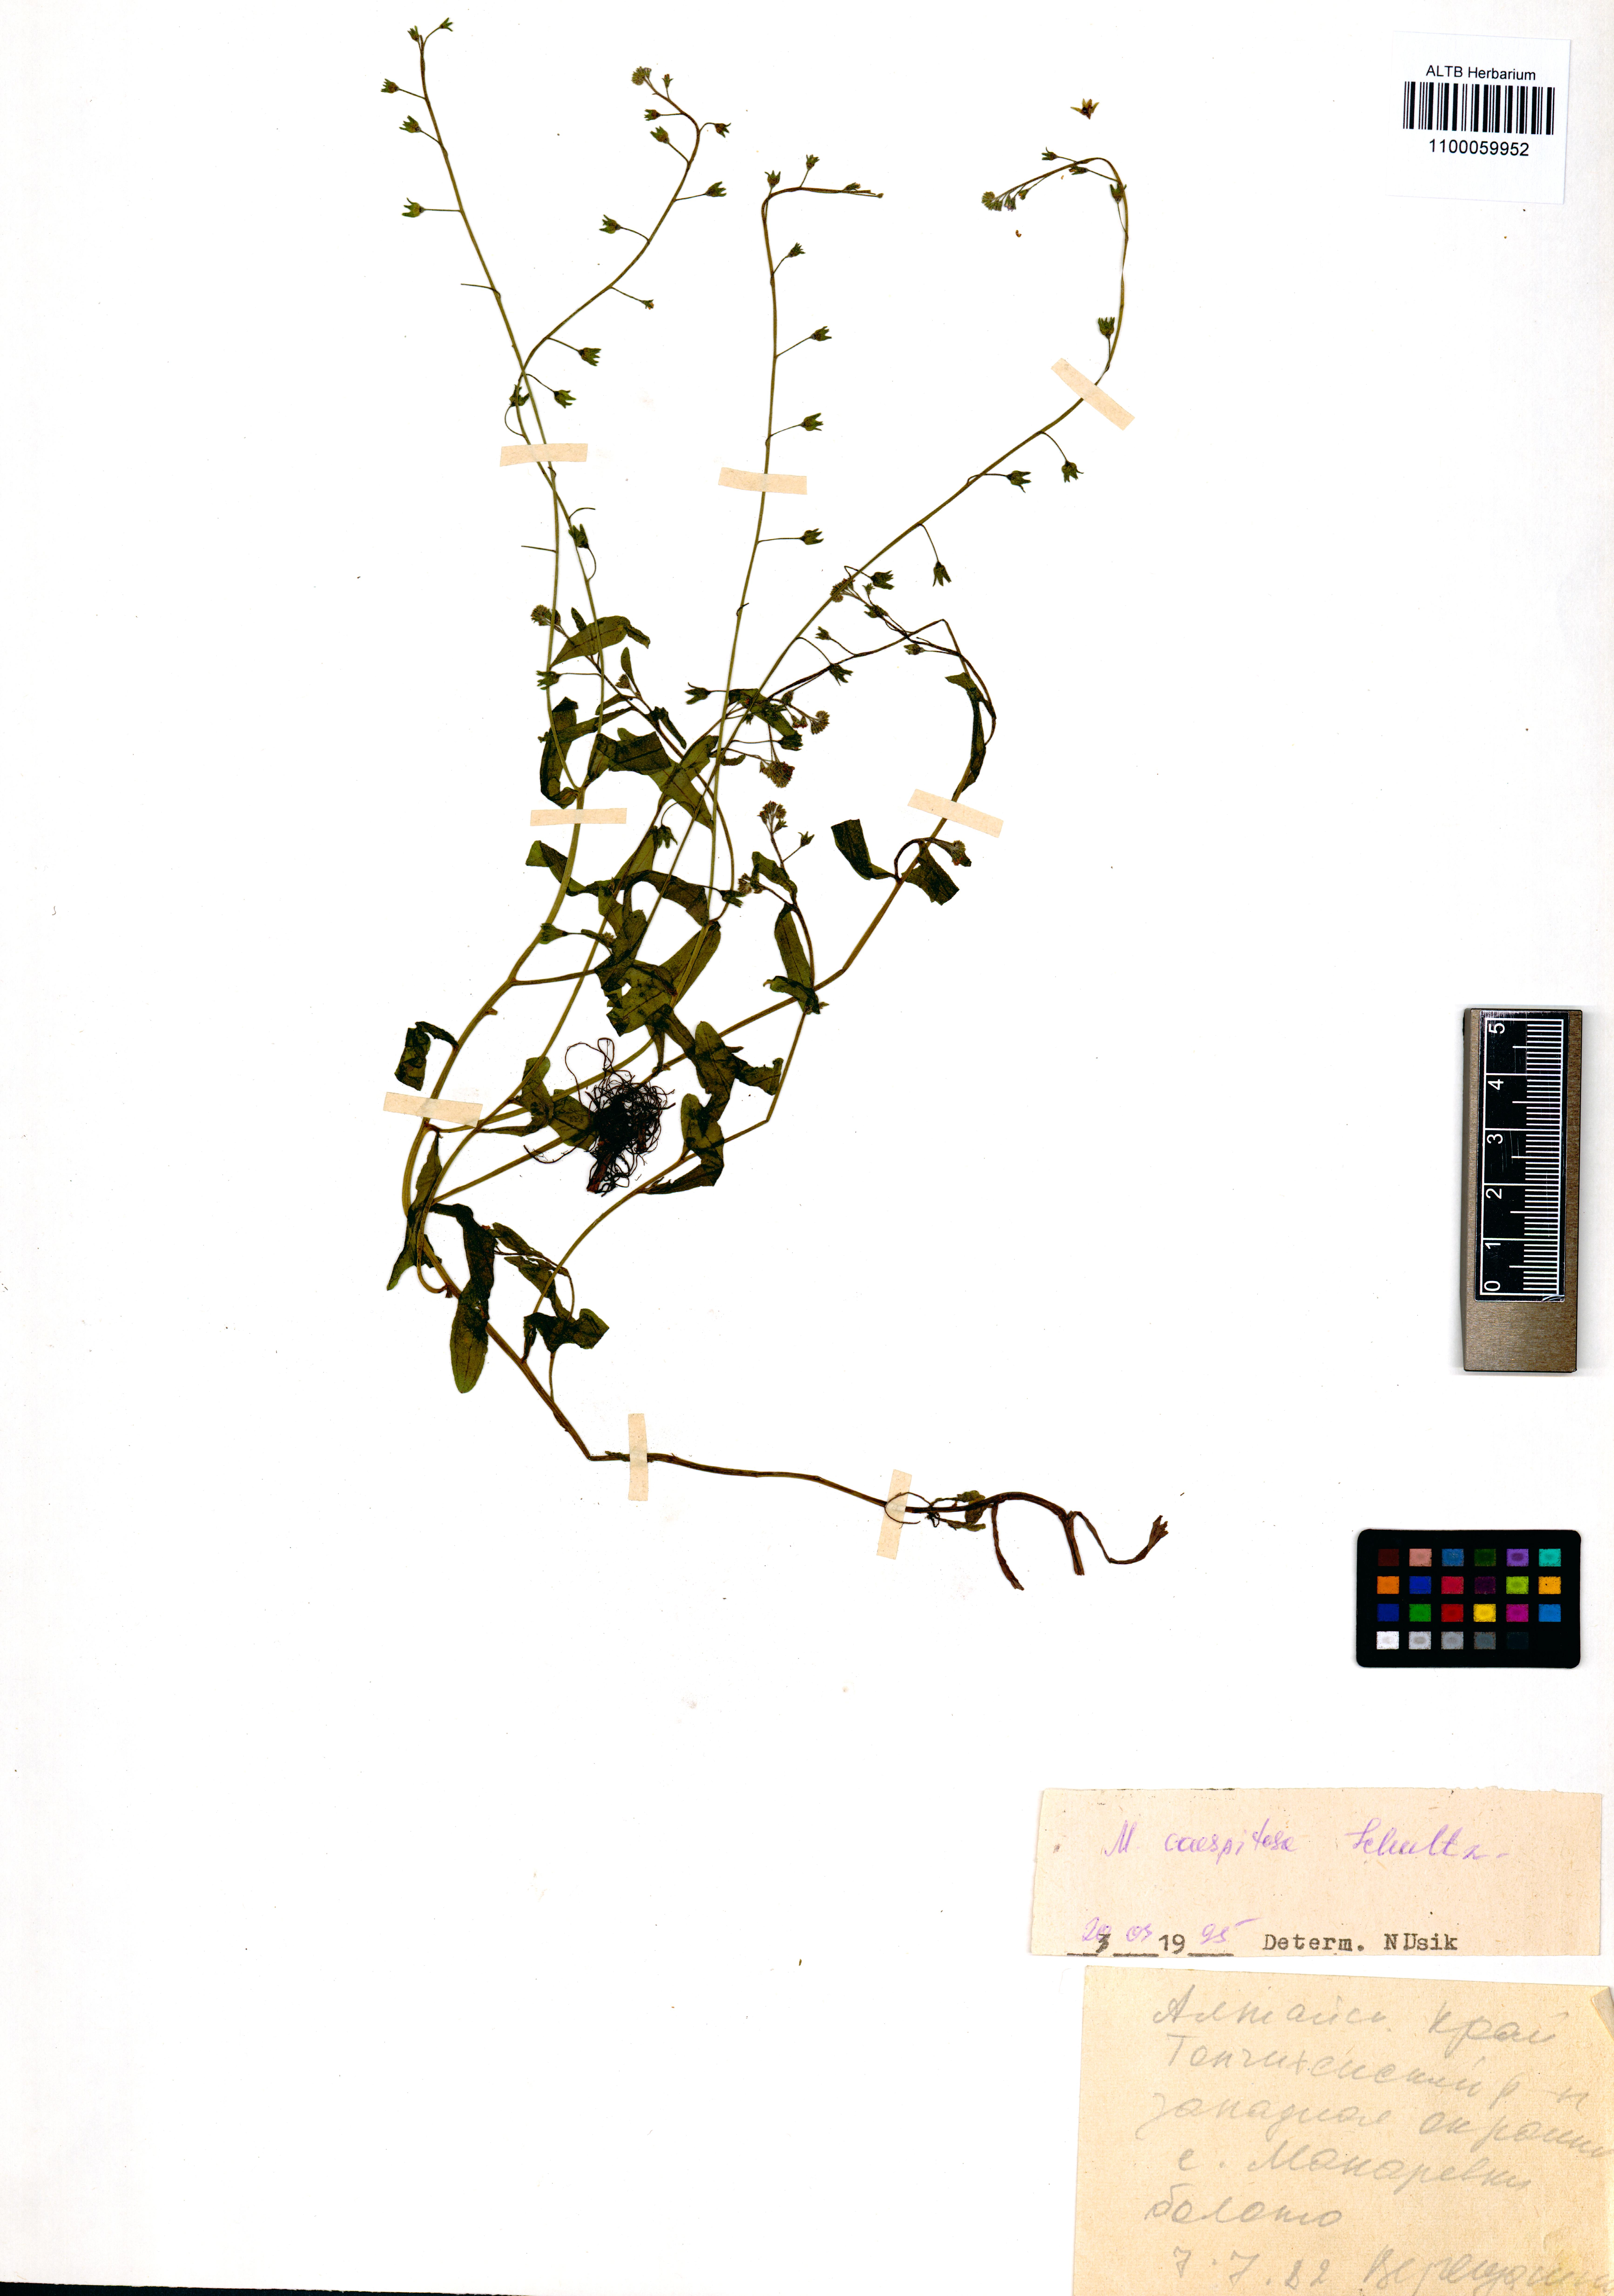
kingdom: Plantae
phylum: Tracheophyta
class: Magnoliopsida
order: Boraginales
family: Boraginaceae
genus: Myosotis
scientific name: Myosotis laxa
